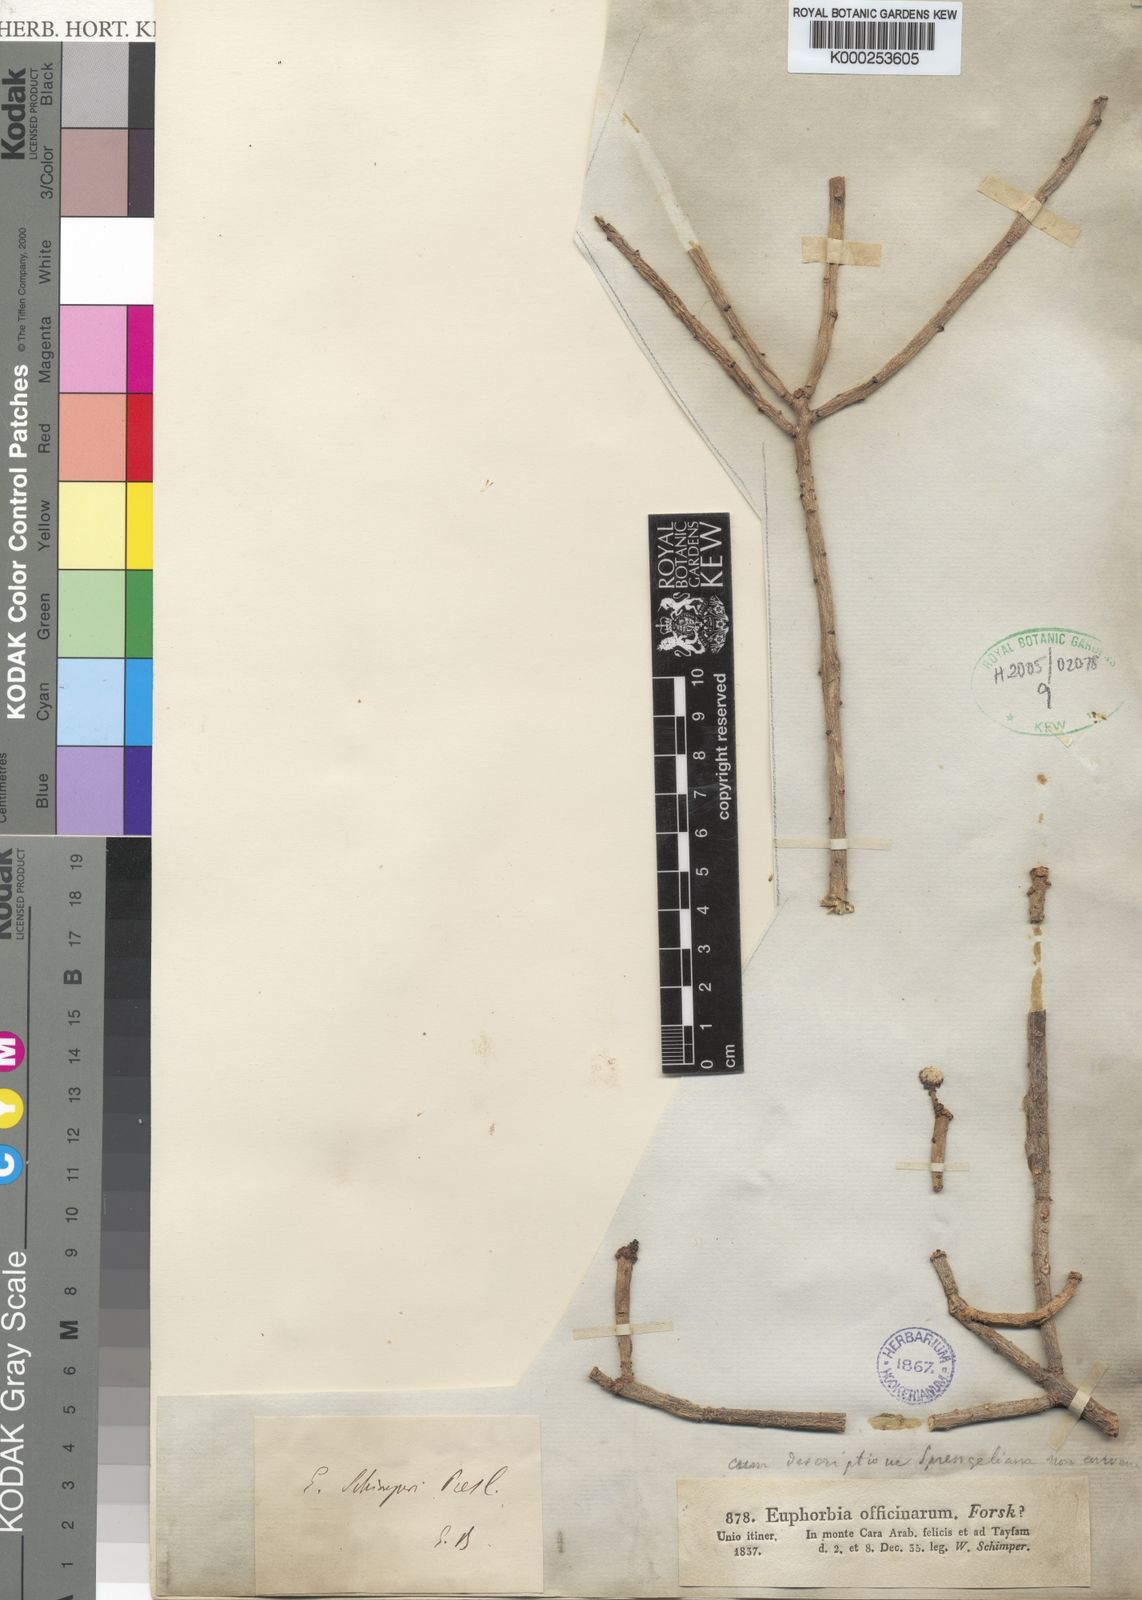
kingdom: Plantae
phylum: Tracheophyta
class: Magnoliopsida
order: Malpighiales
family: Euphorbiaceae
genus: Euphorbia
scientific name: Euphorbia schimperi
